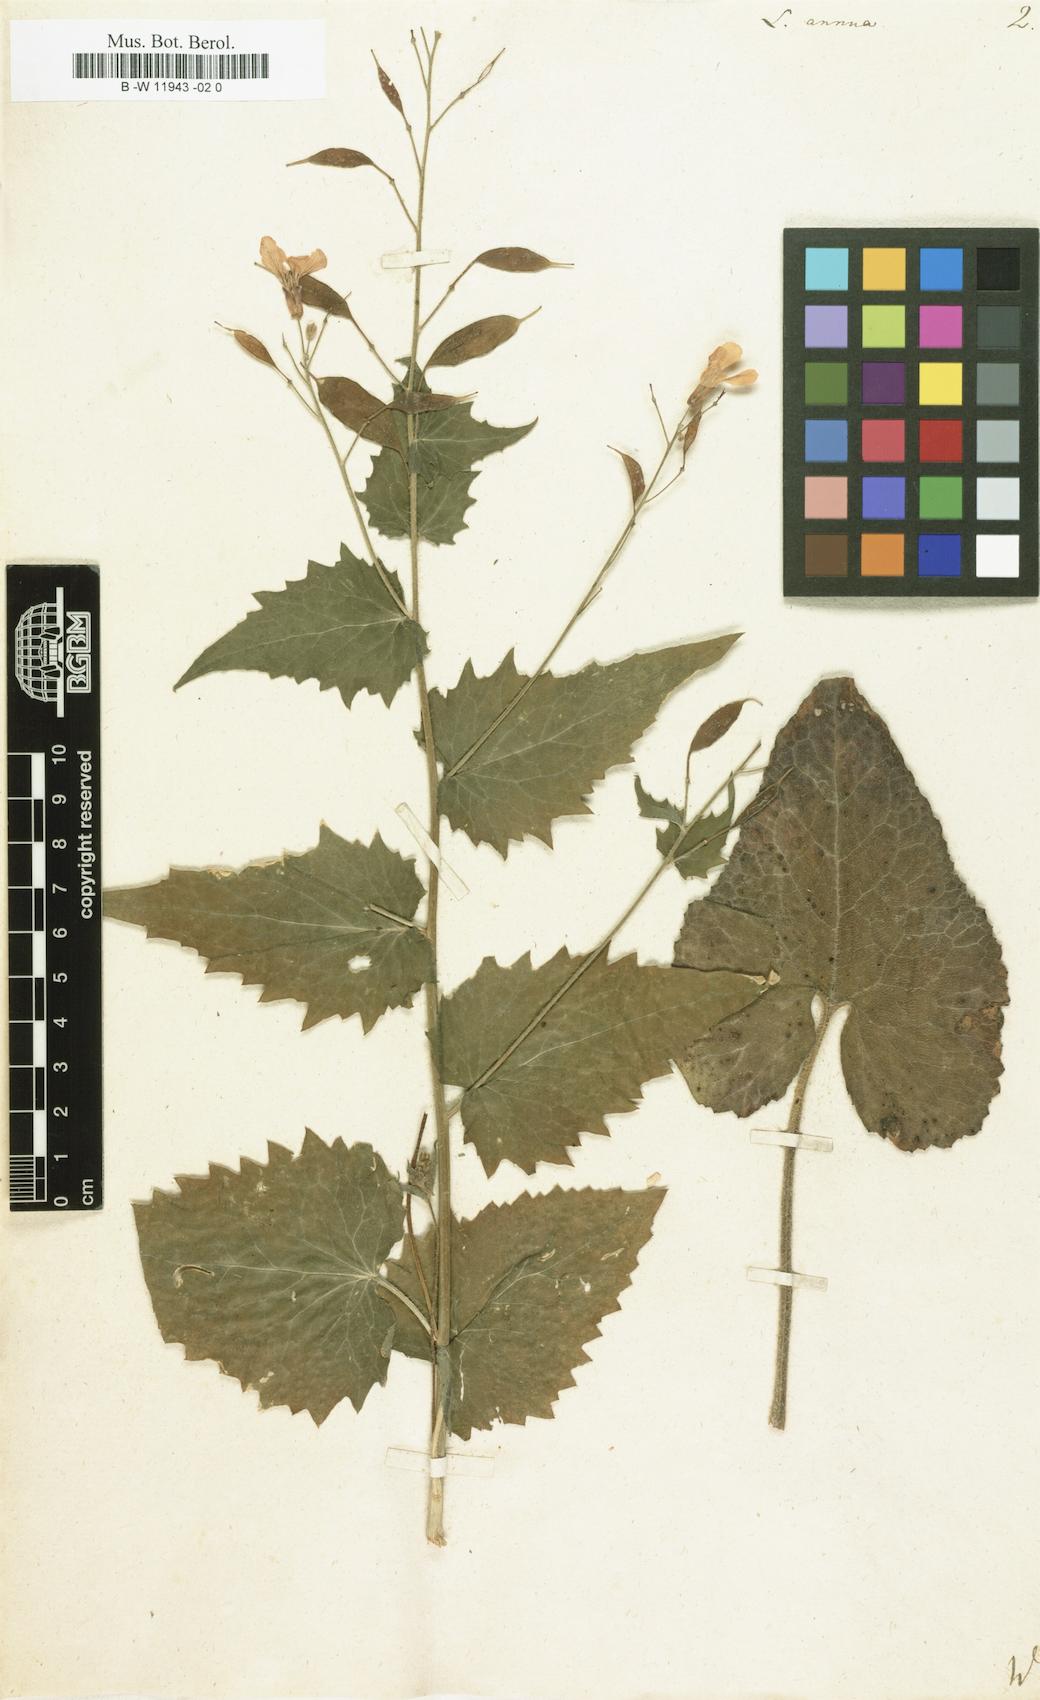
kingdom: Plantae
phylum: Tracheophyta
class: Magnoliopsida
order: Brassicales
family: Brassicaceae
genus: Lunaria
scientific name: Lunaria annua
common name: Honesty
